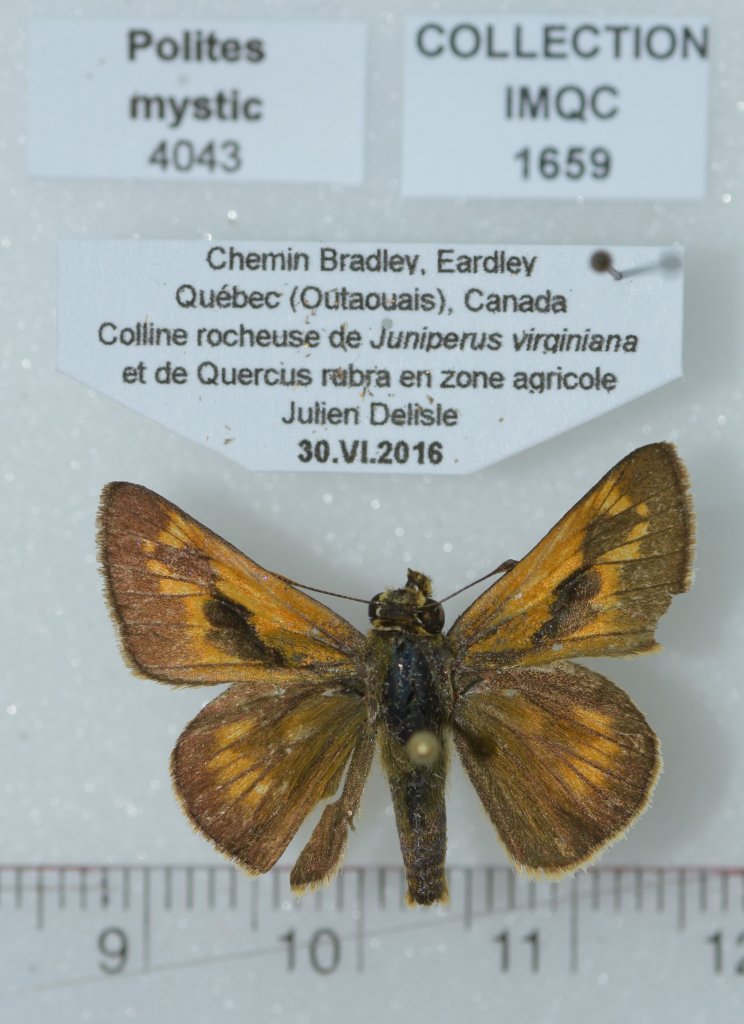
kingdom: Animalia
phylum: Arthropoda
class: Insecta
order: Lepidoptera
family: Hesperiidae
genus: Polites
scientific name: Polites
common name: Long Dash Skipper
